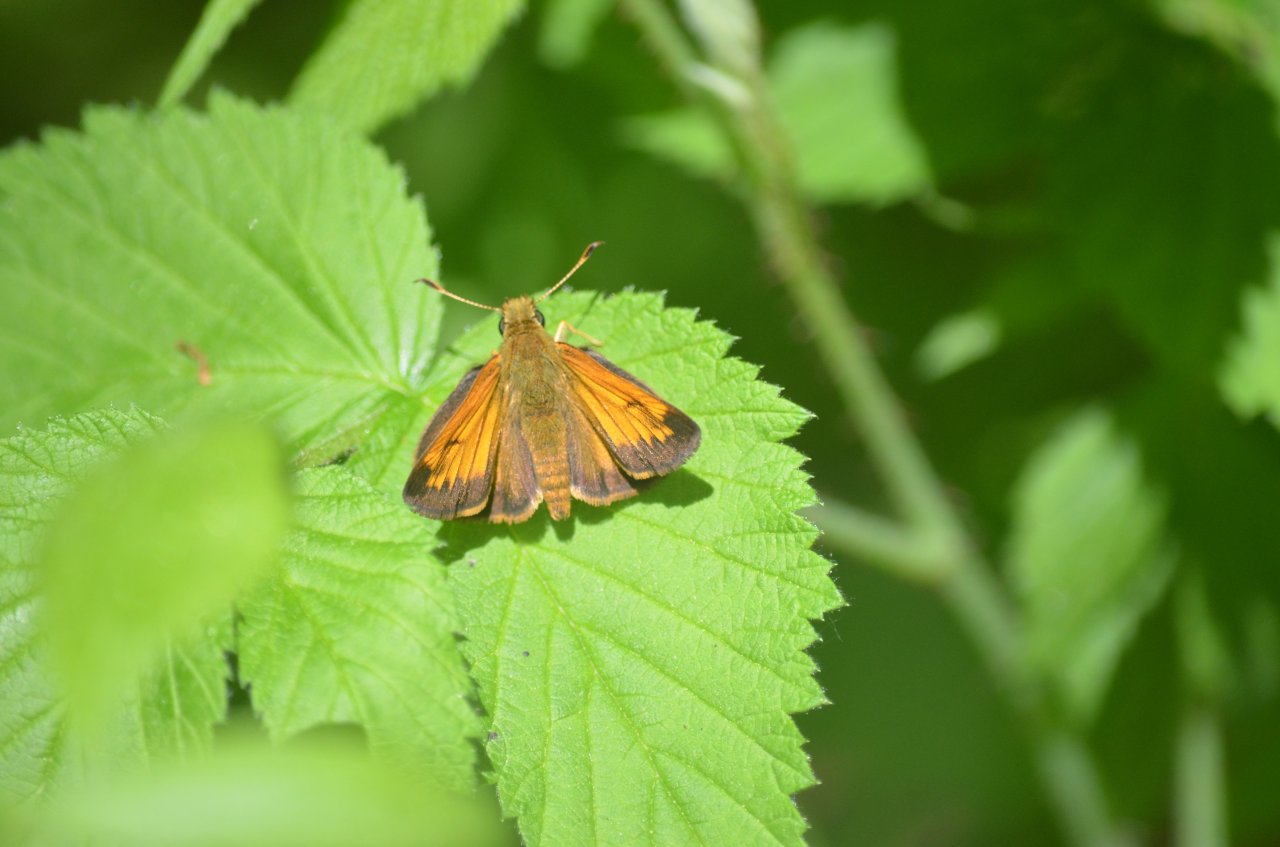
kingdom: Animalia
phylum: Arthropoda
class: Insecta
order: Lepidoptera
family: Hesperiidae
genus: Lon
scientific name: Lon hobomok
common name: Hobomok Skipper
